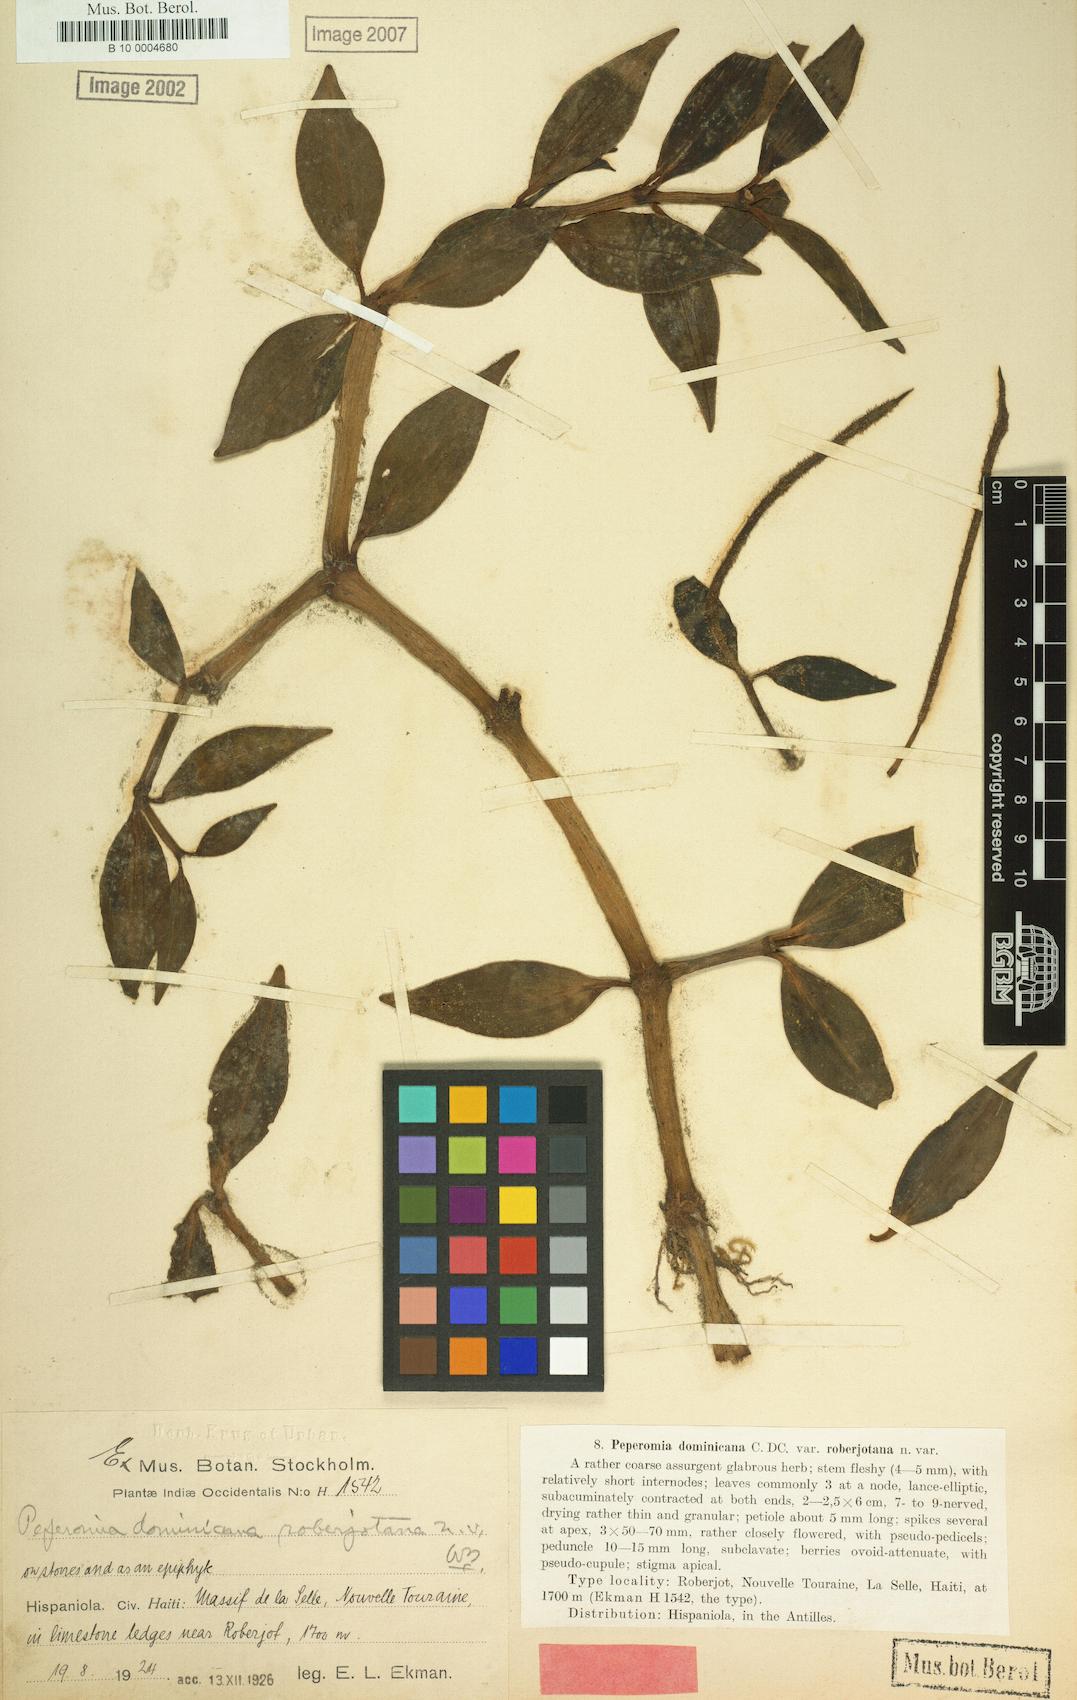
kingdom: Plantae
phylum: Tracheophyta
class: Magnoliopsida
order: Piperales
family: Piperaceae
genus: Peperomia
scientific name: Peperomia dominicana
